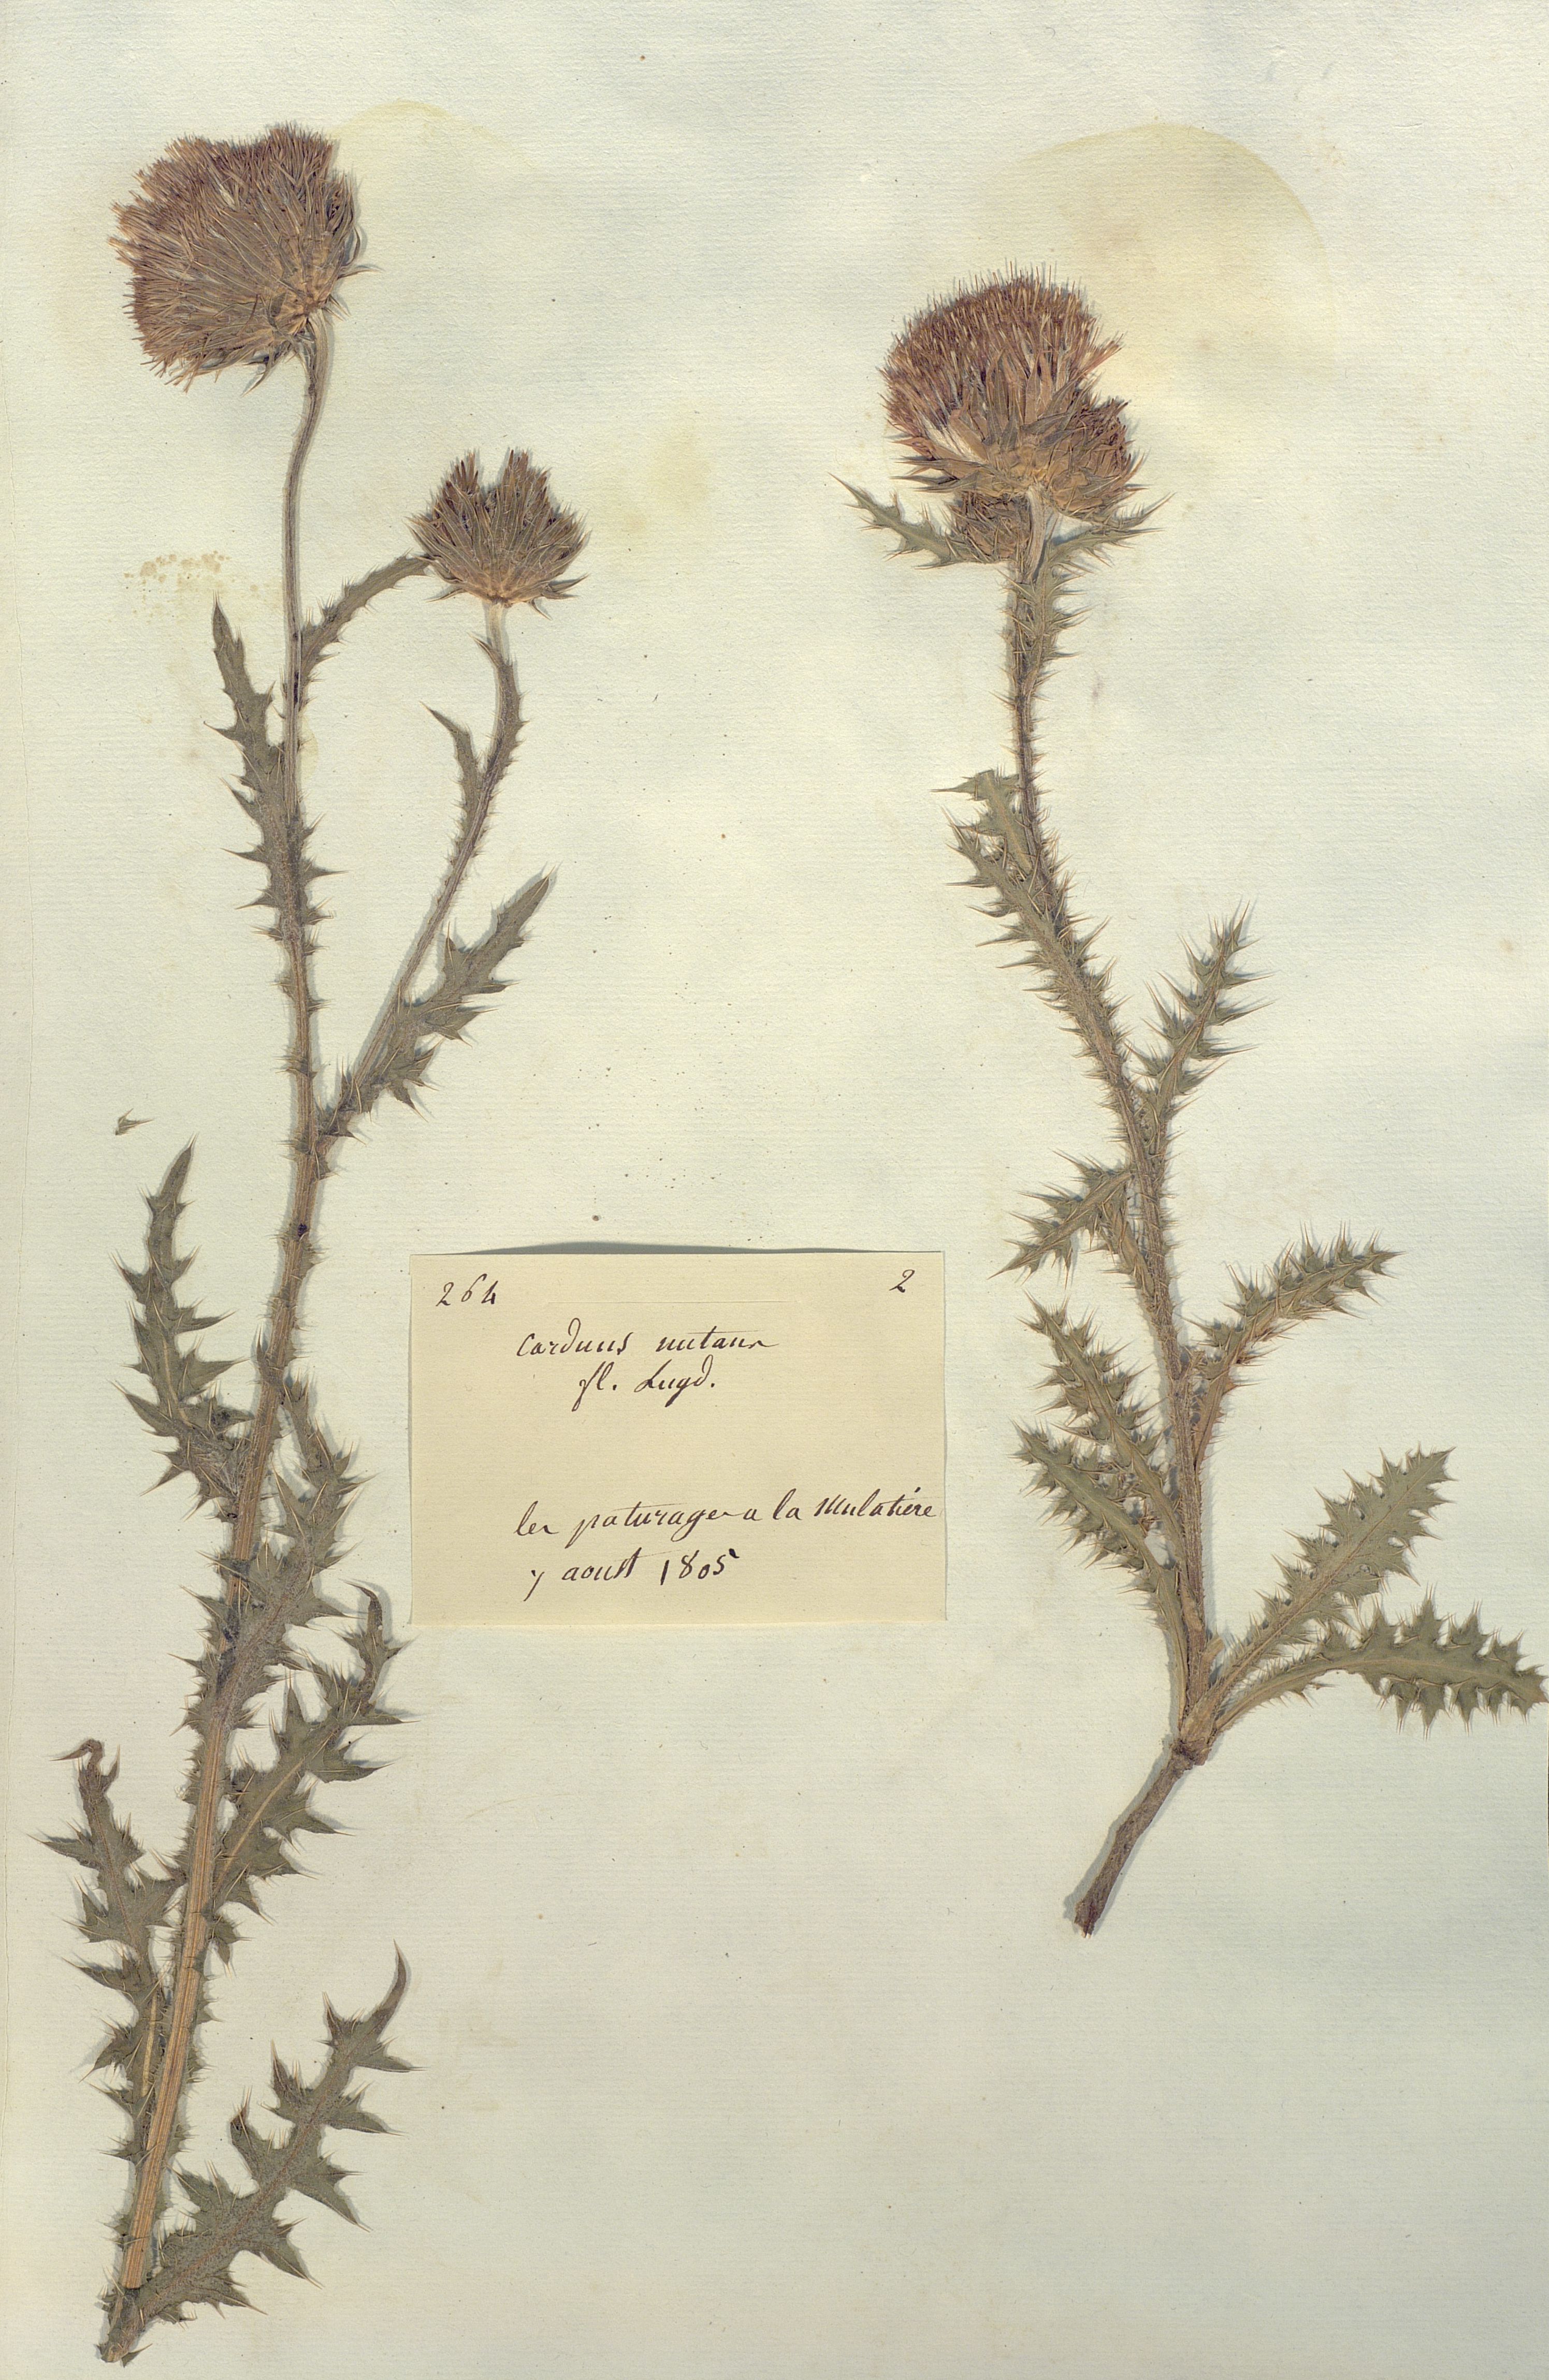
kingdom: Plantae
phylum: Tracheophyta
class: Magnoliopsida
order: Asterales
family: Asteraceae
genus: Carduus
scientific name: Carduus nutans
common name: Musk thistle
